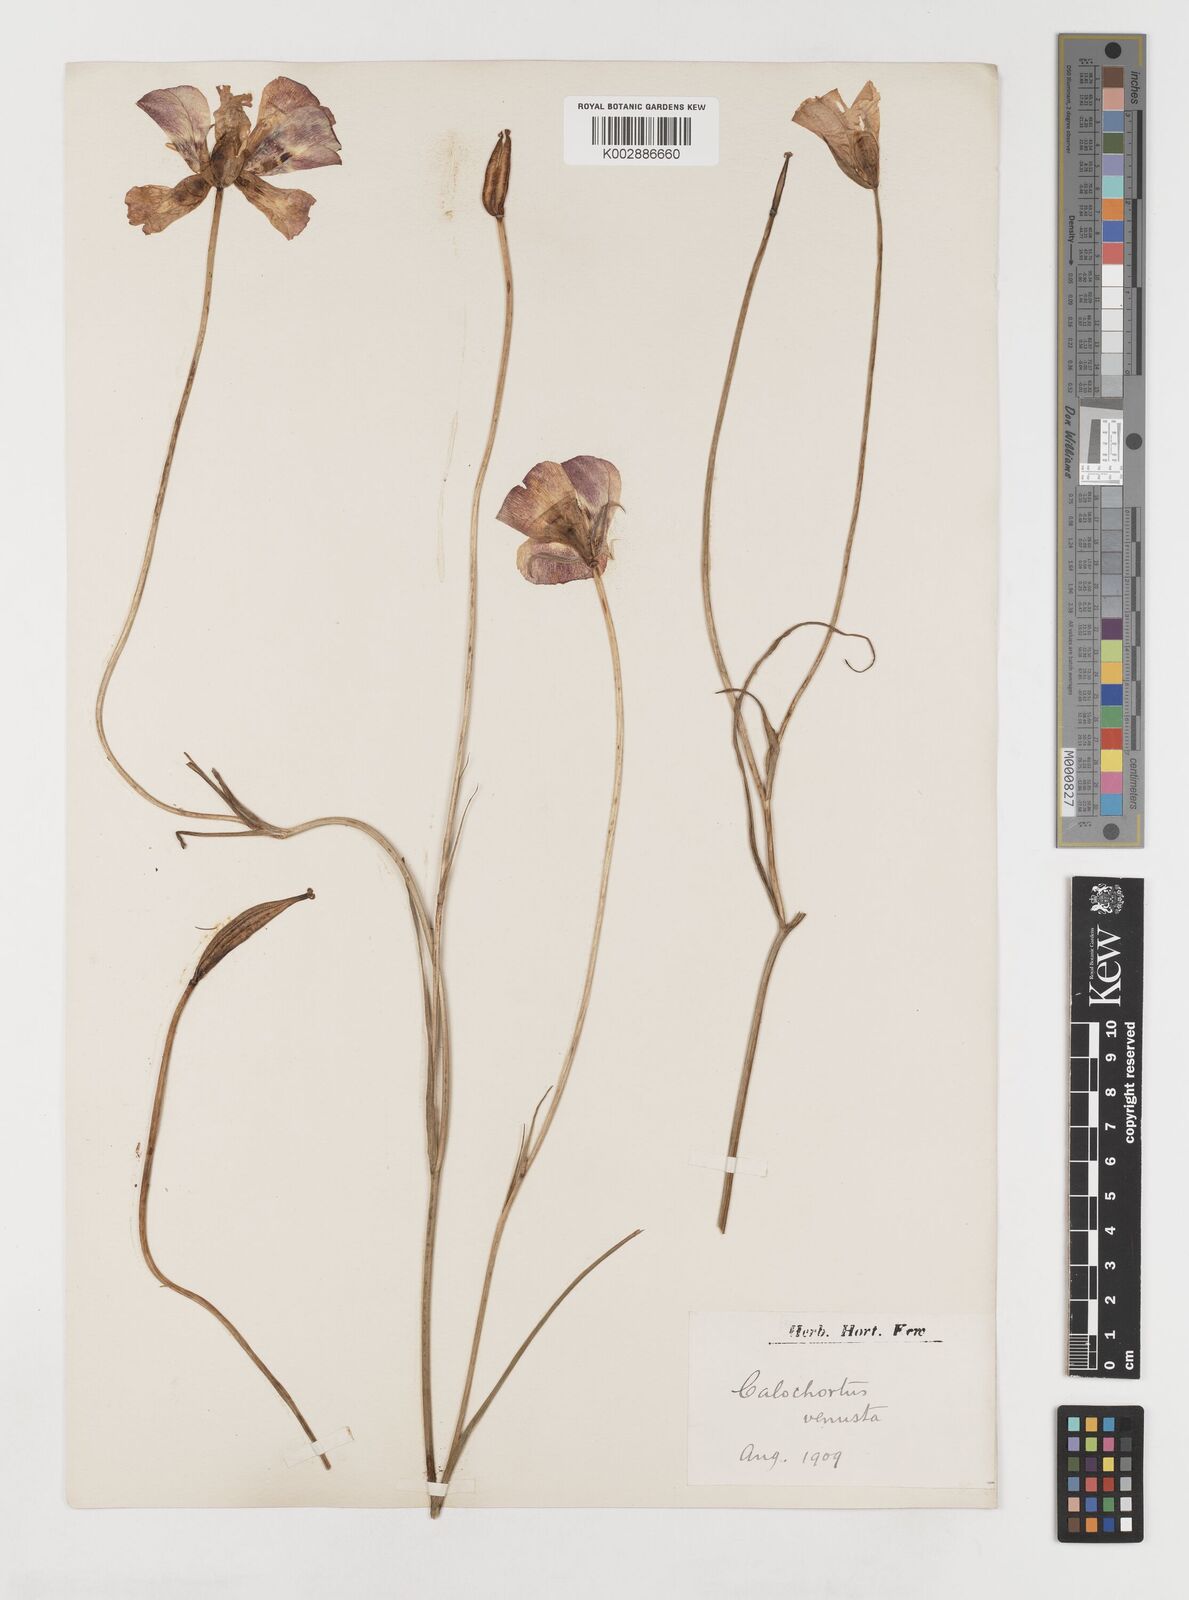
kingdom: Plantae
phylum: Tracheophyta
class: Liliopsida
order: Liliales
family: Liliaceae
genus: Calochortus
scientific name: Calochortus venustus
